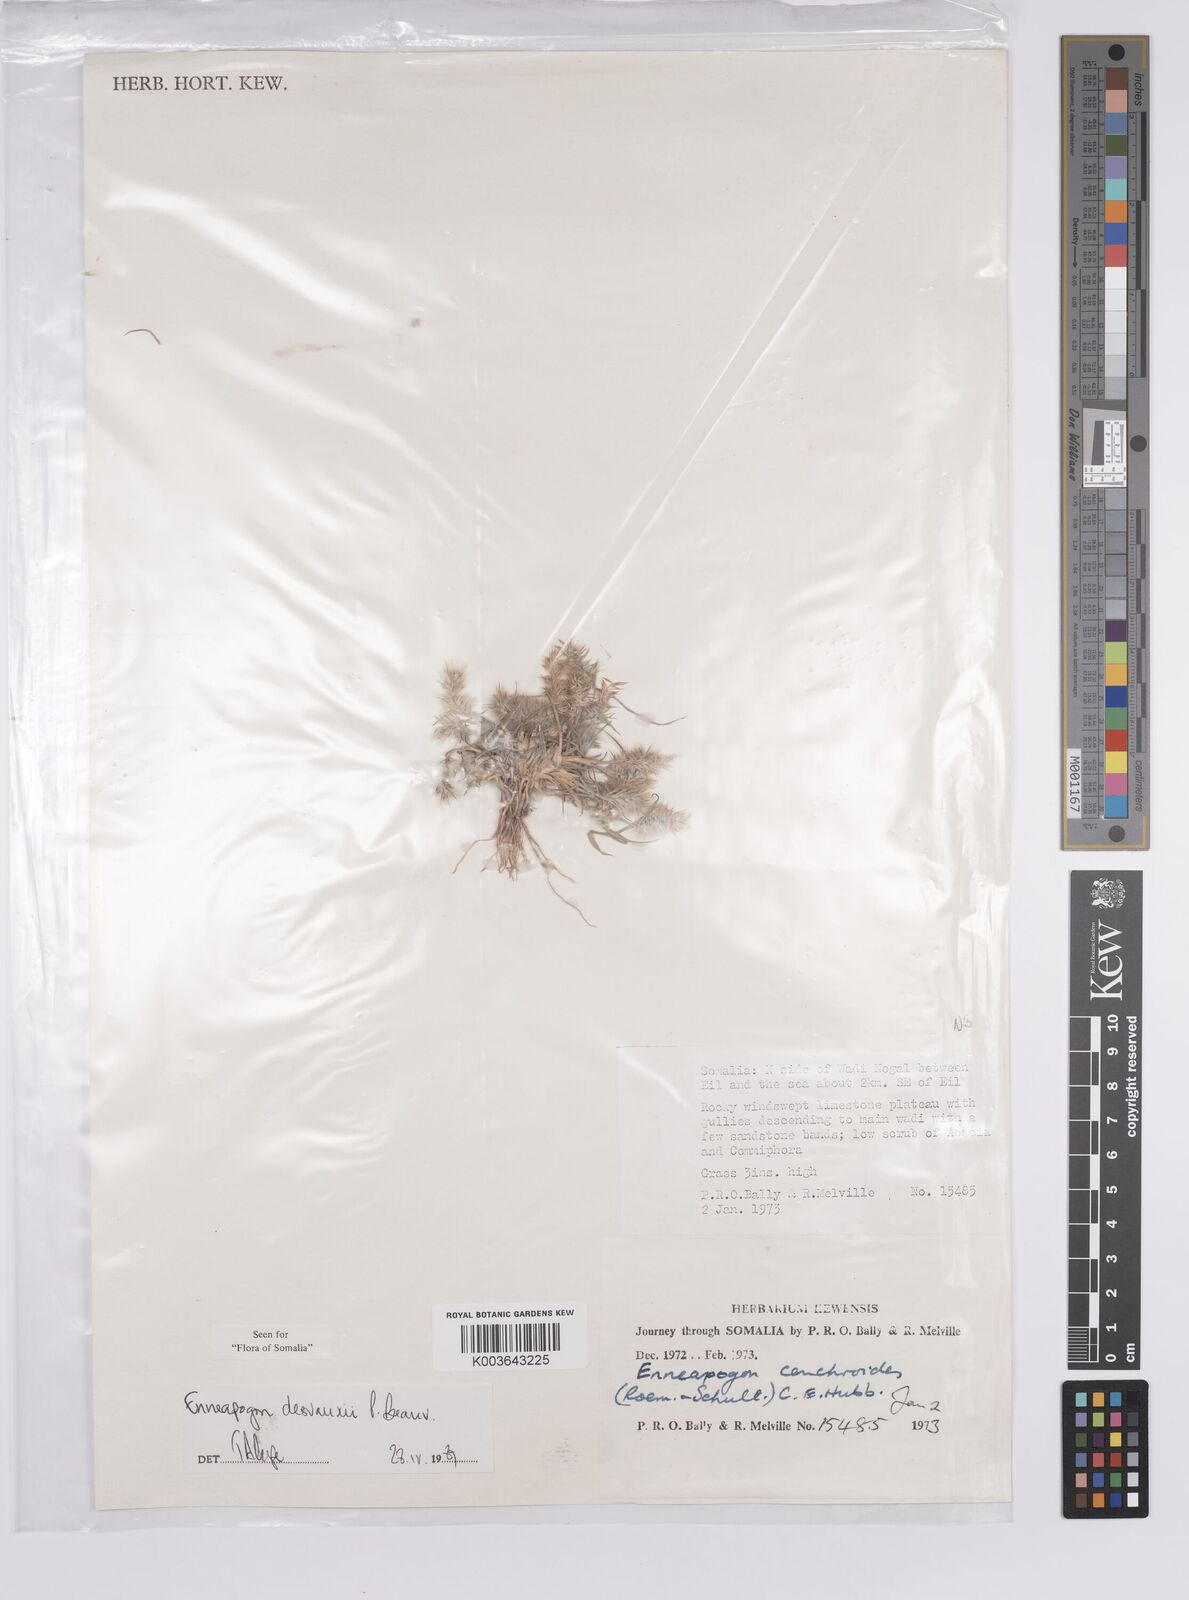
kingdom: Plantae
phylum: Tracheophyta
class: Liliopsida
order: Poales
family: Poaceae
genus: Enneapogon
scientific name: Enneapogon desvauxii
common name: Feather pappus grass
